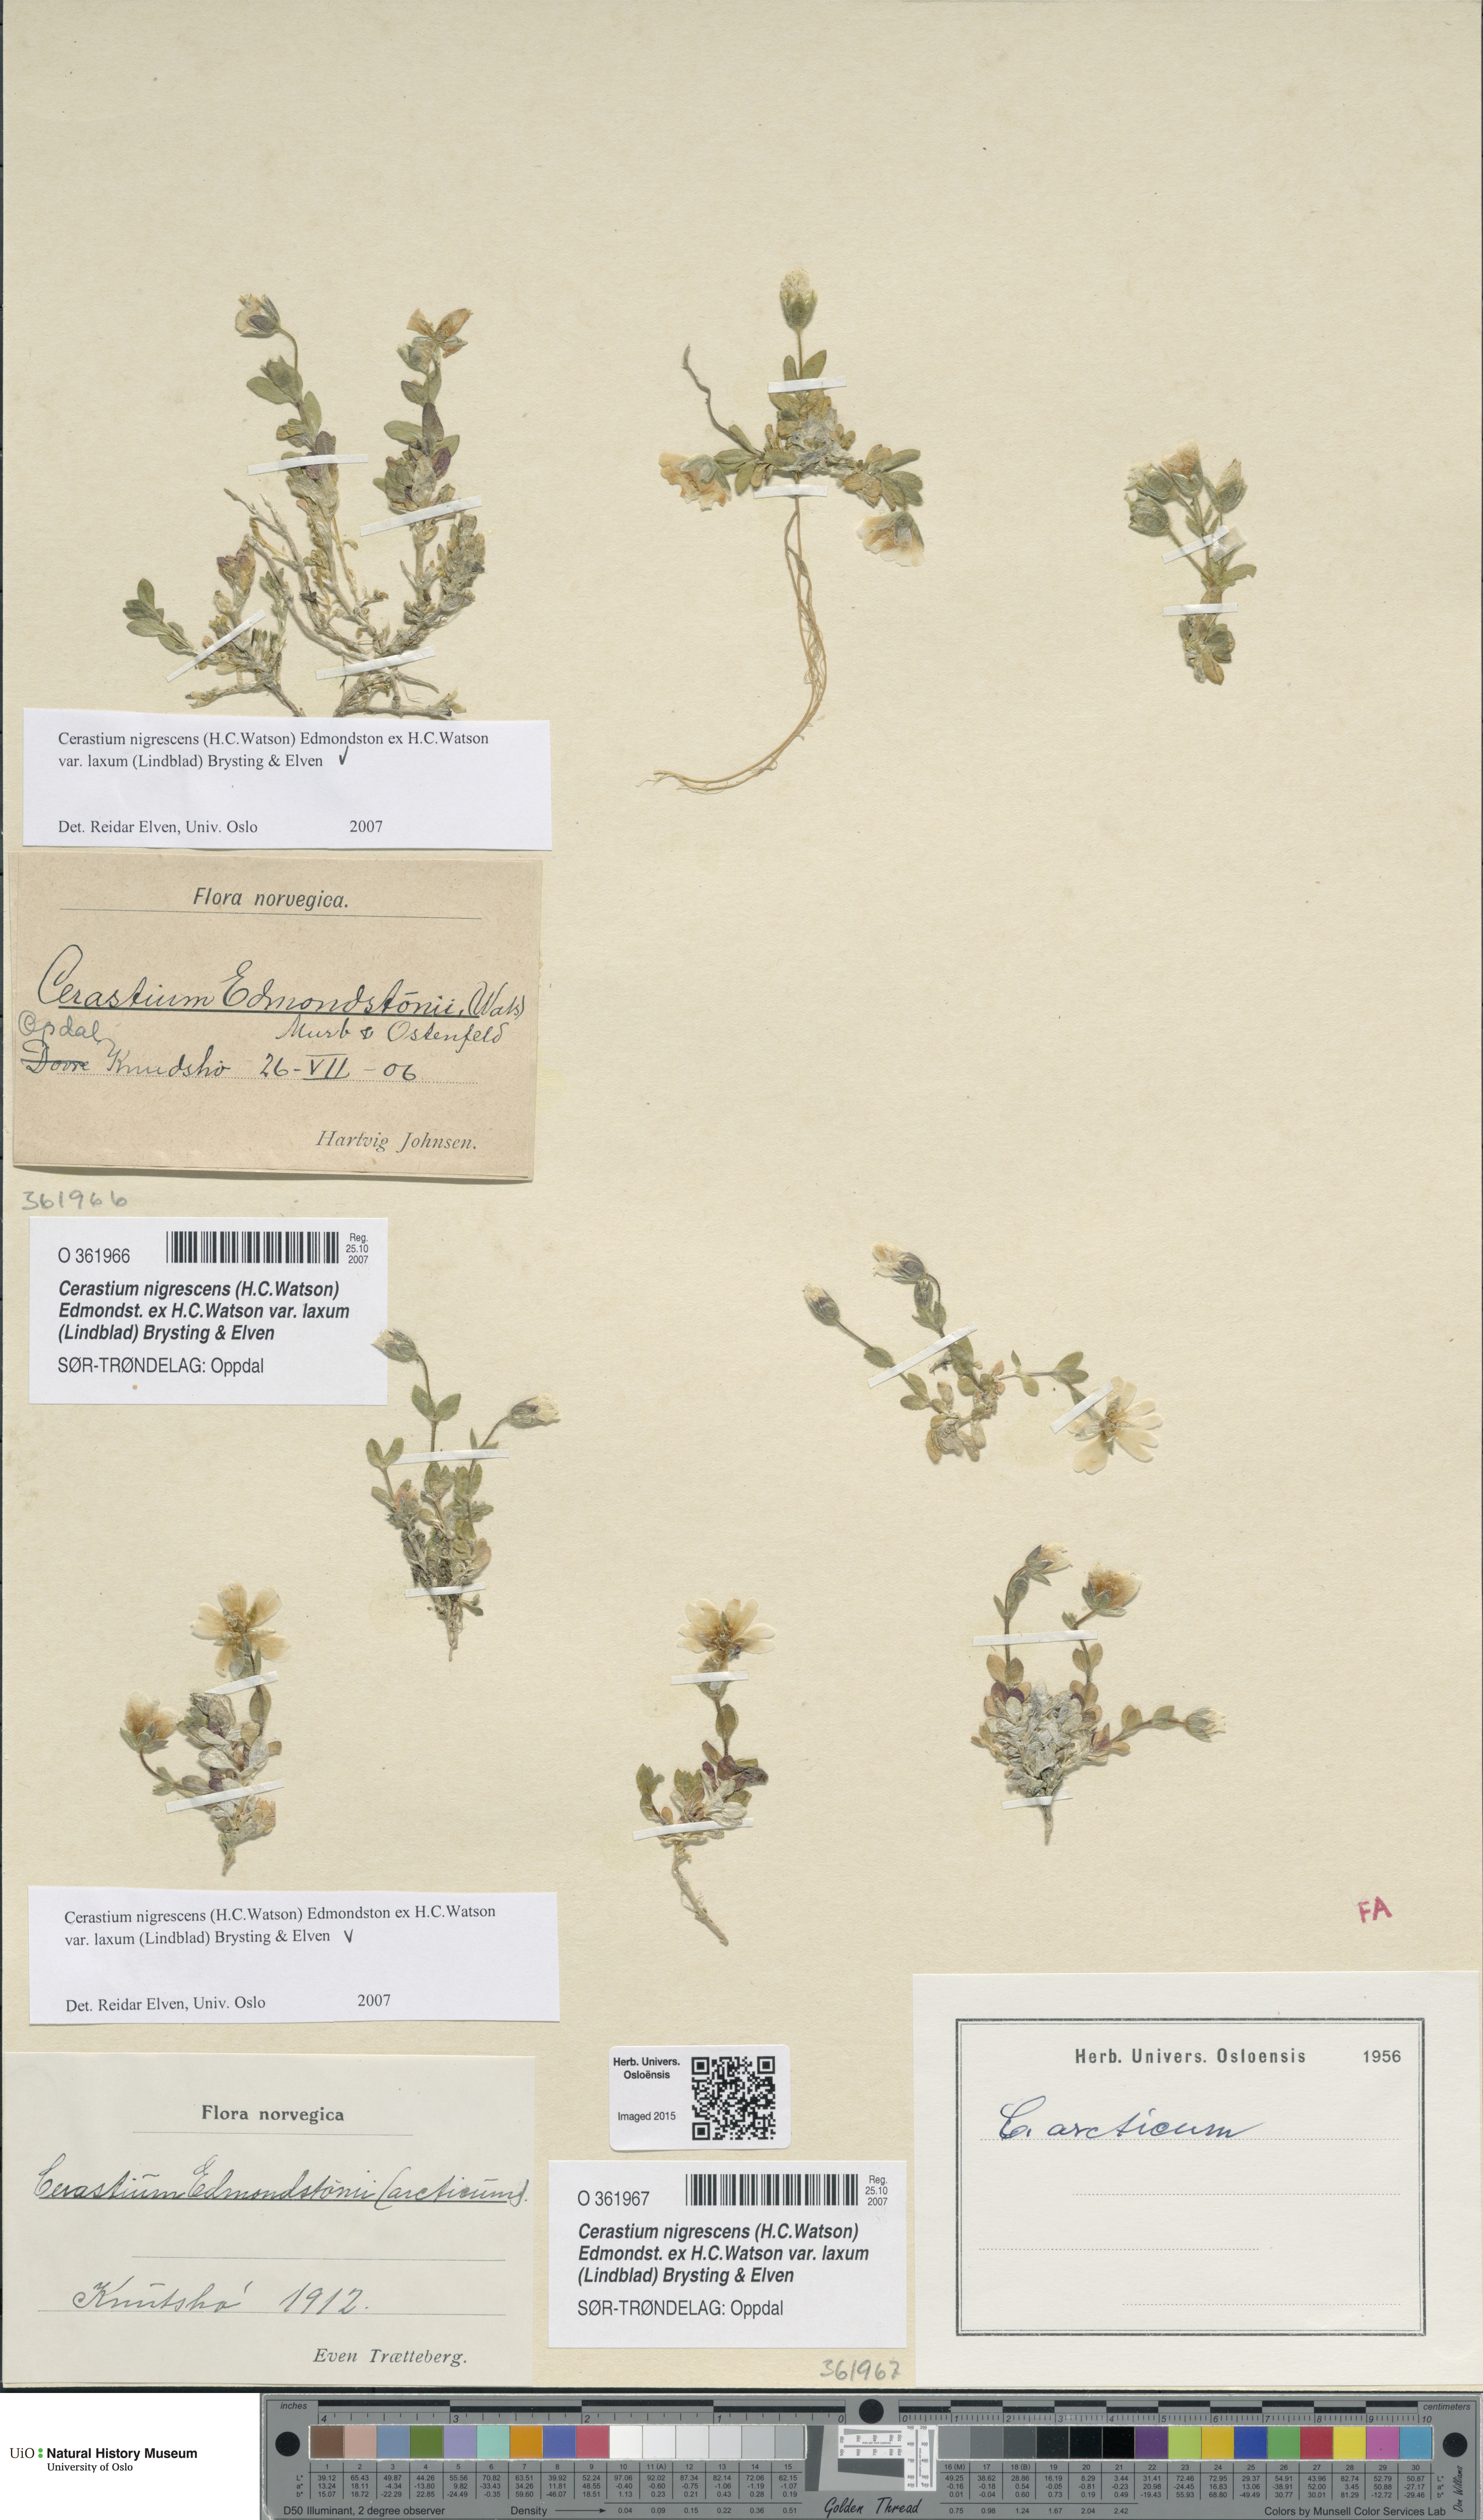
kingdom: Plantae
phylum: Tracheophyta
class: Magnoliopsida
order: Caryophyllales
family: Caryophyllaceae
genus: Cerastium
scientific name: Cerastium nigrescens
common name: Shetland mouse-ear
